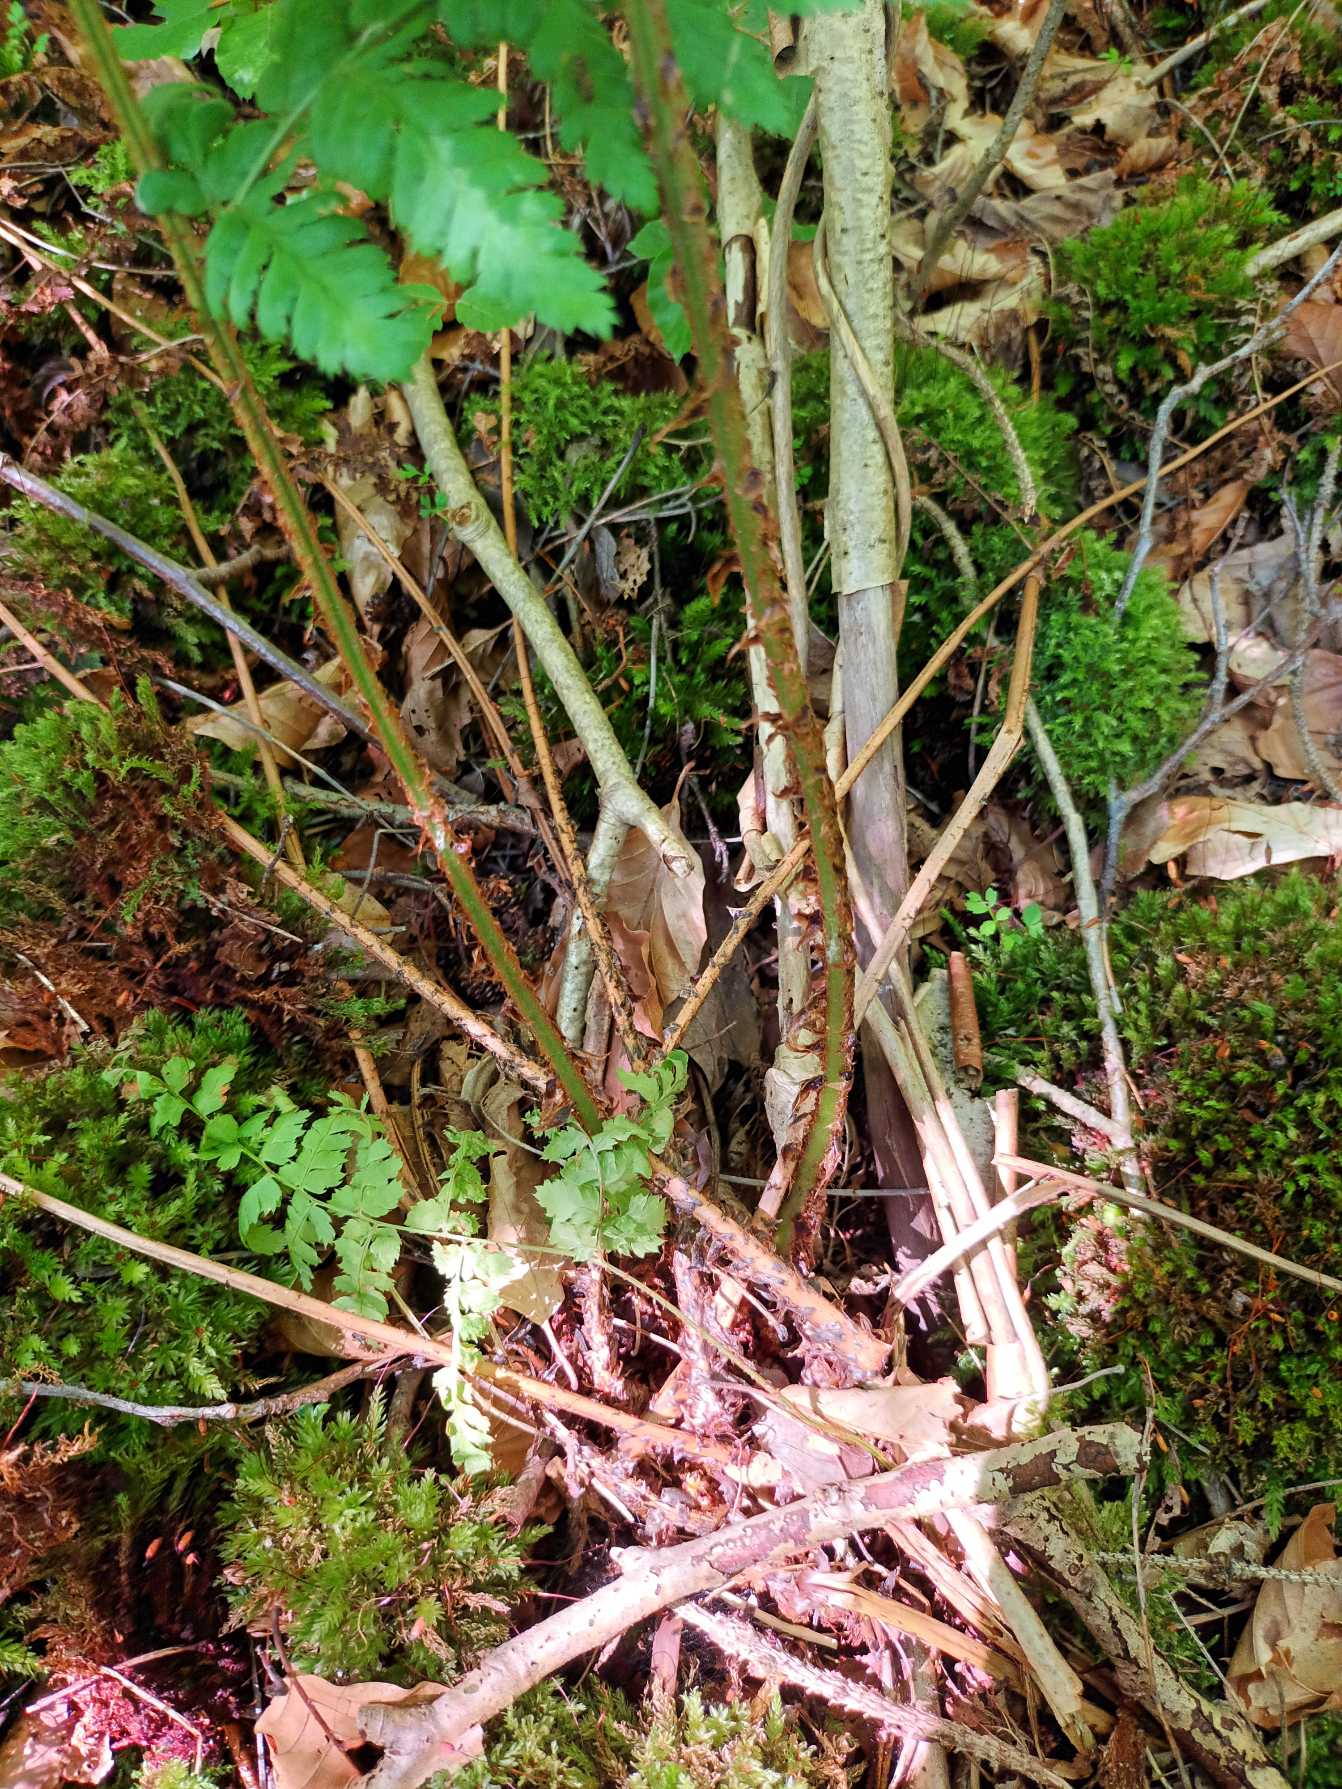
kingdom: Plantae
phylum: Tracheophyta
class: Polypodiopsida
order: Polypodiales
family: Dryopteridaceae
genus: Dryopteris
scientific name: Dryopteris dilatata
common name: Bredbladet mangeløv
